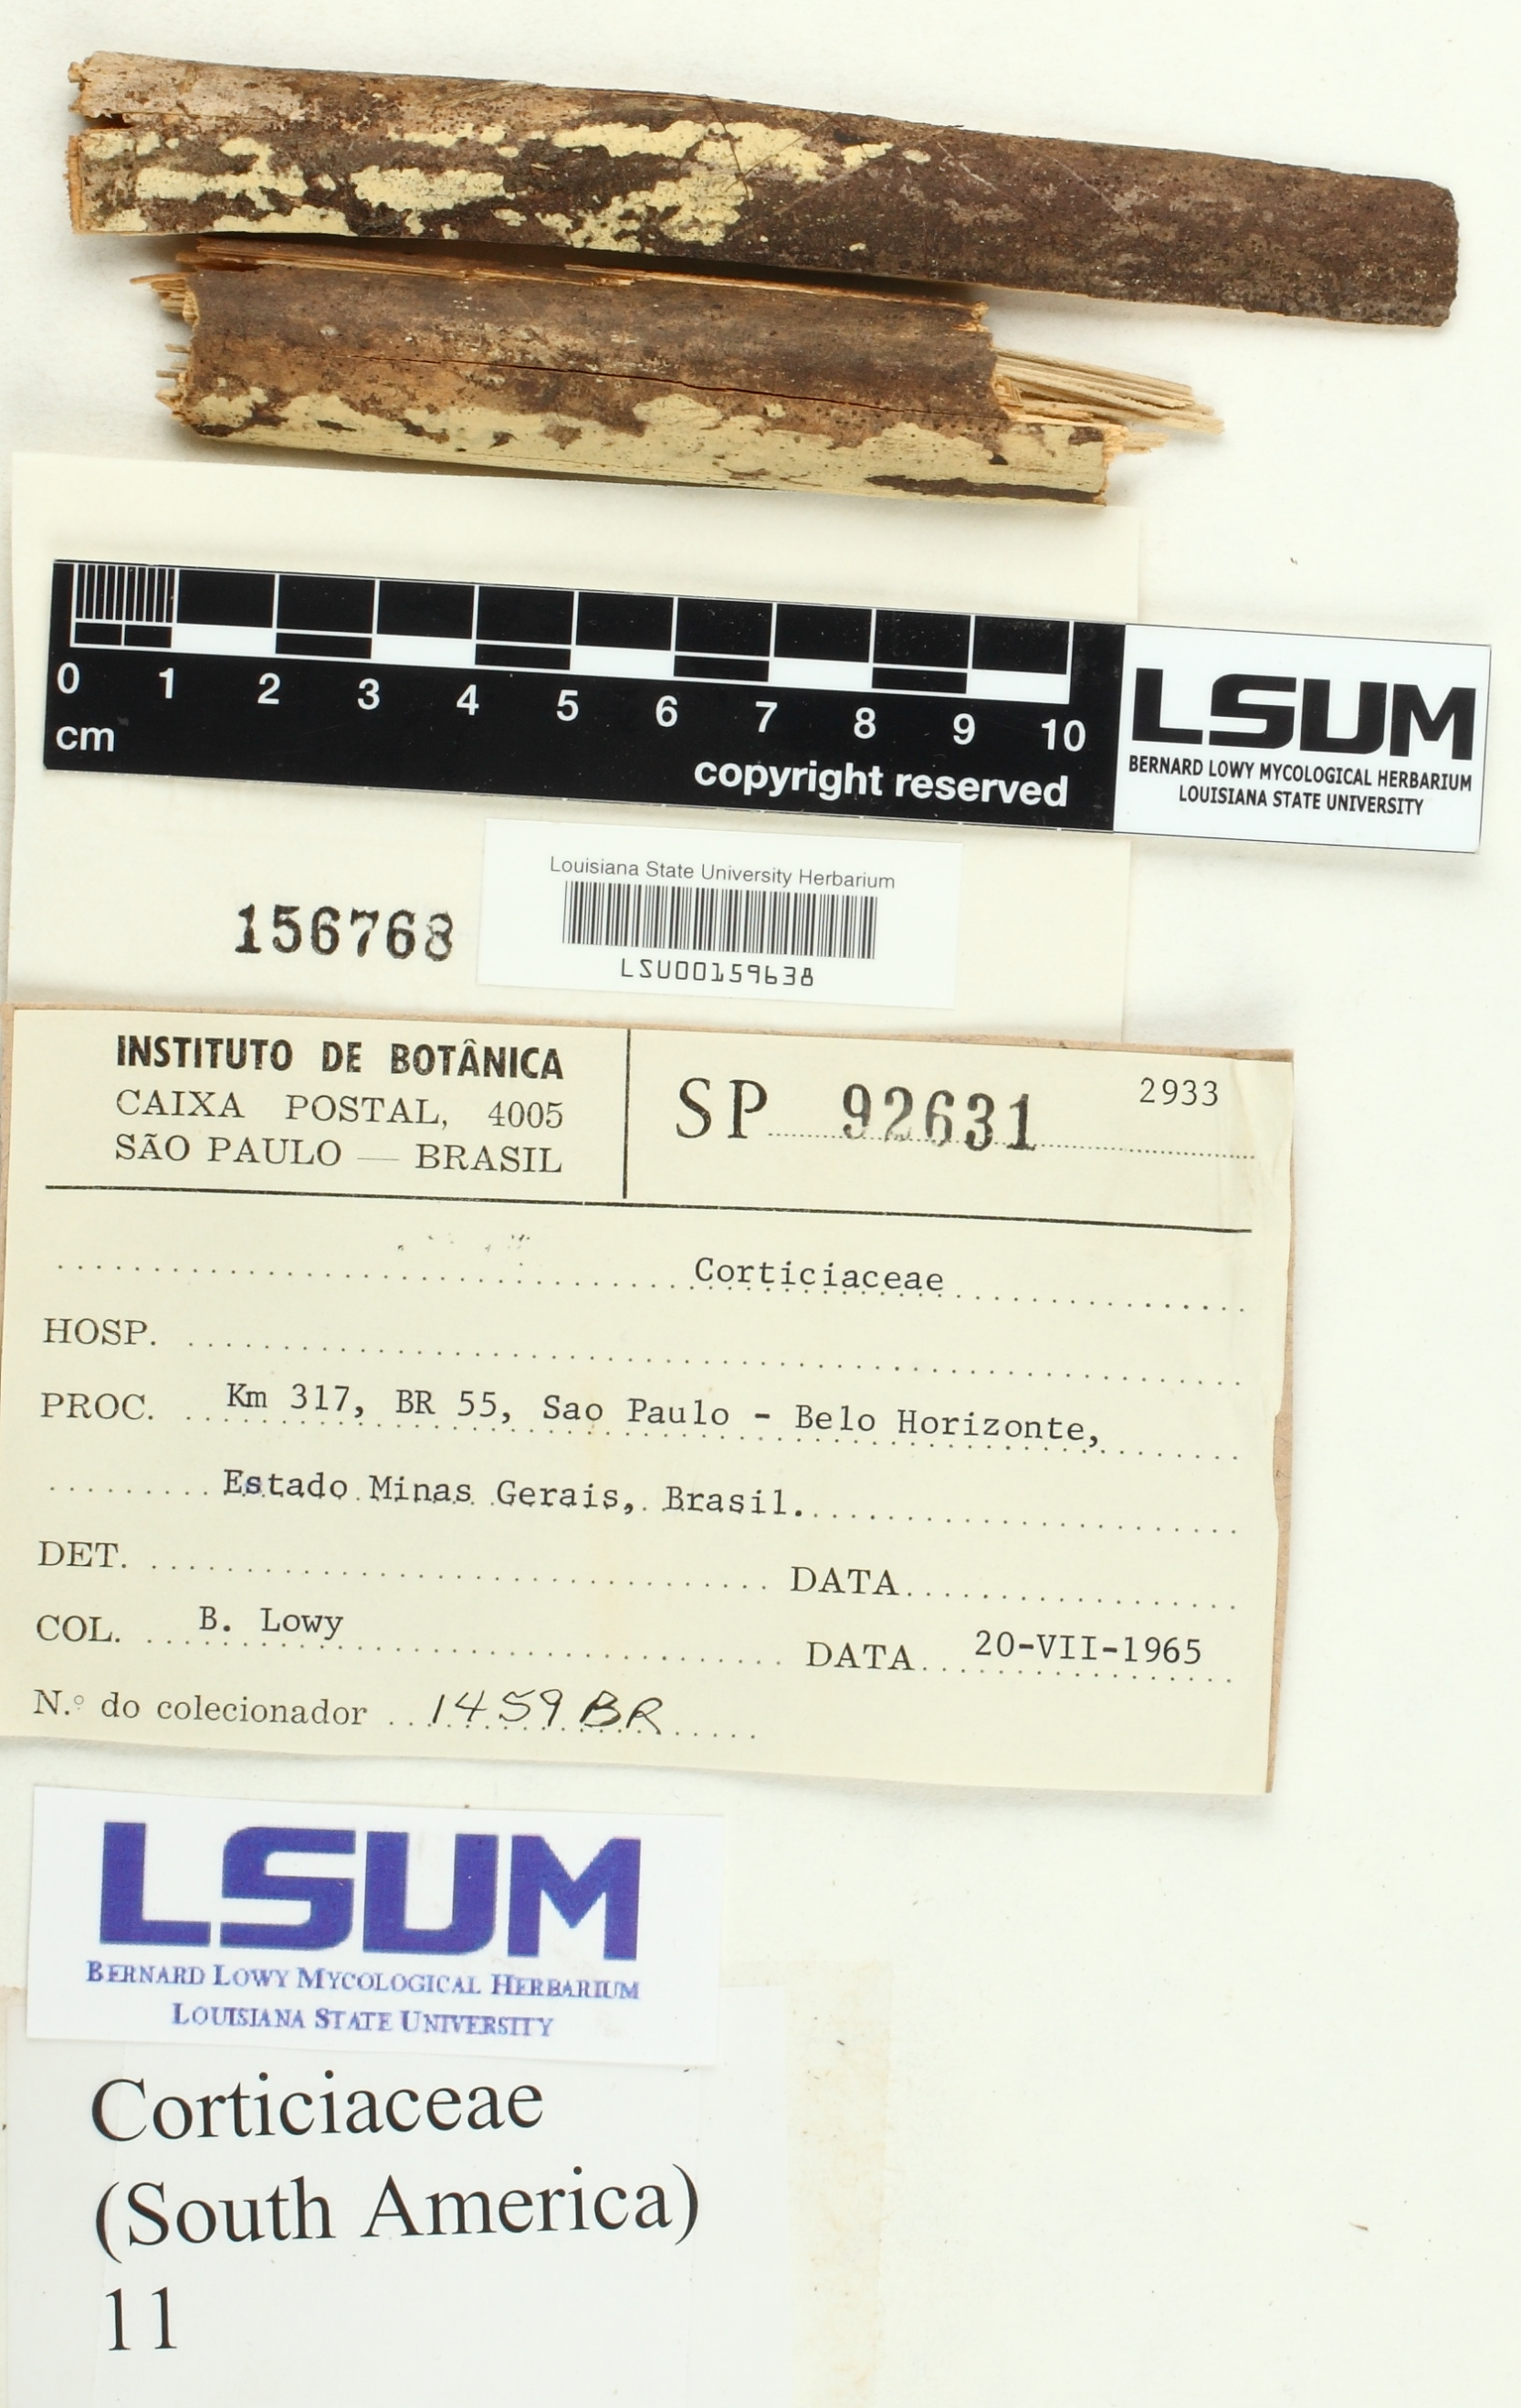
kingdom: Fungi
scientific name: Fungi
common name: Fungi
